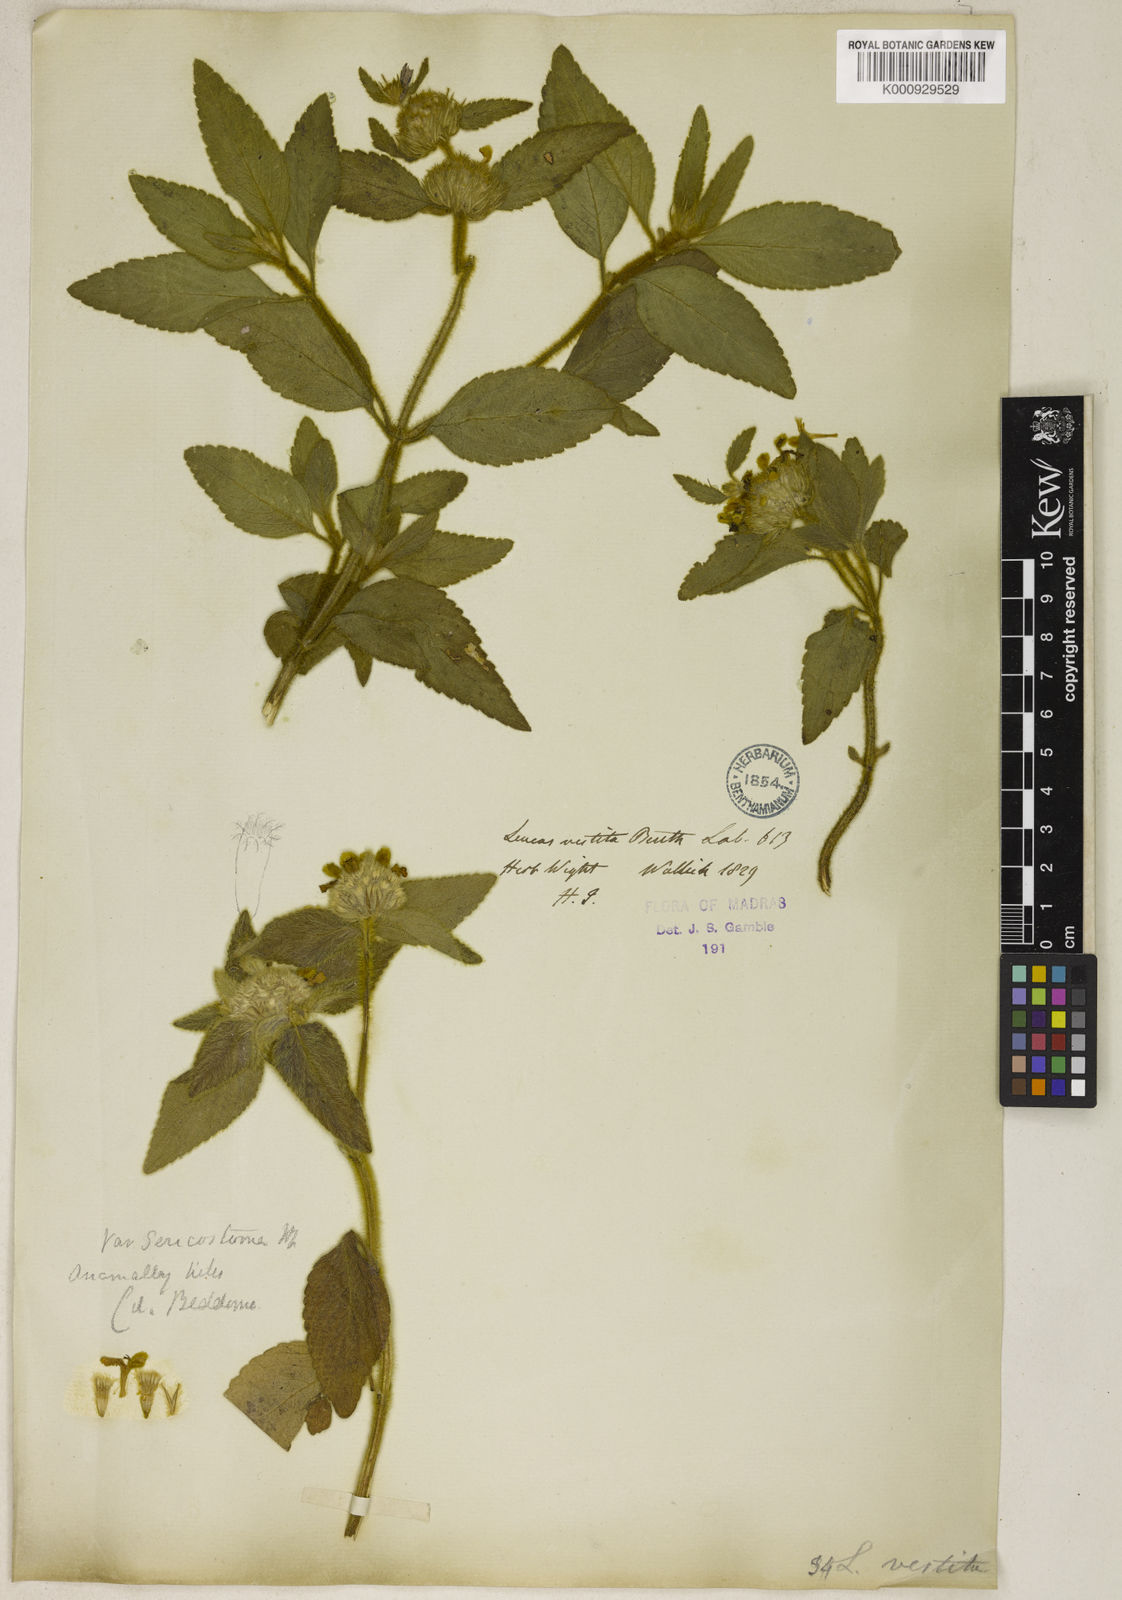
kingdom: Plantae
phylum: Tracheophyta
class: Magnoliopsida
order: Lamiales
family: Lamiaceae
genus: Leucas
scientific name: Leucas vestita
